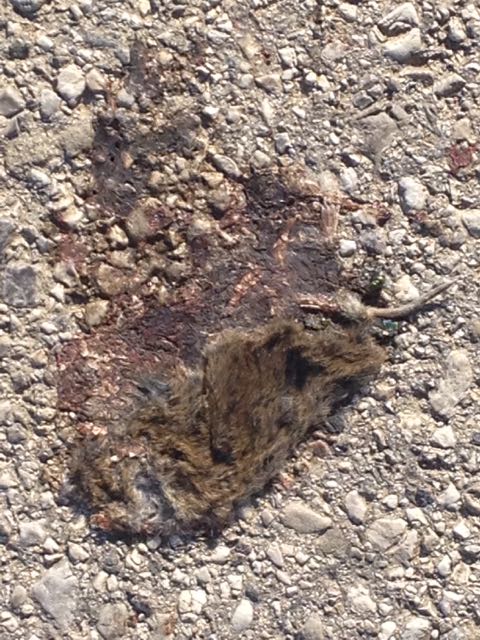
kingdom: Animalia
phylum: Chordata
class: Mammalia
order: Rodentia
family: Cricetidae
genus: Microtus
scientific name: Microtus
